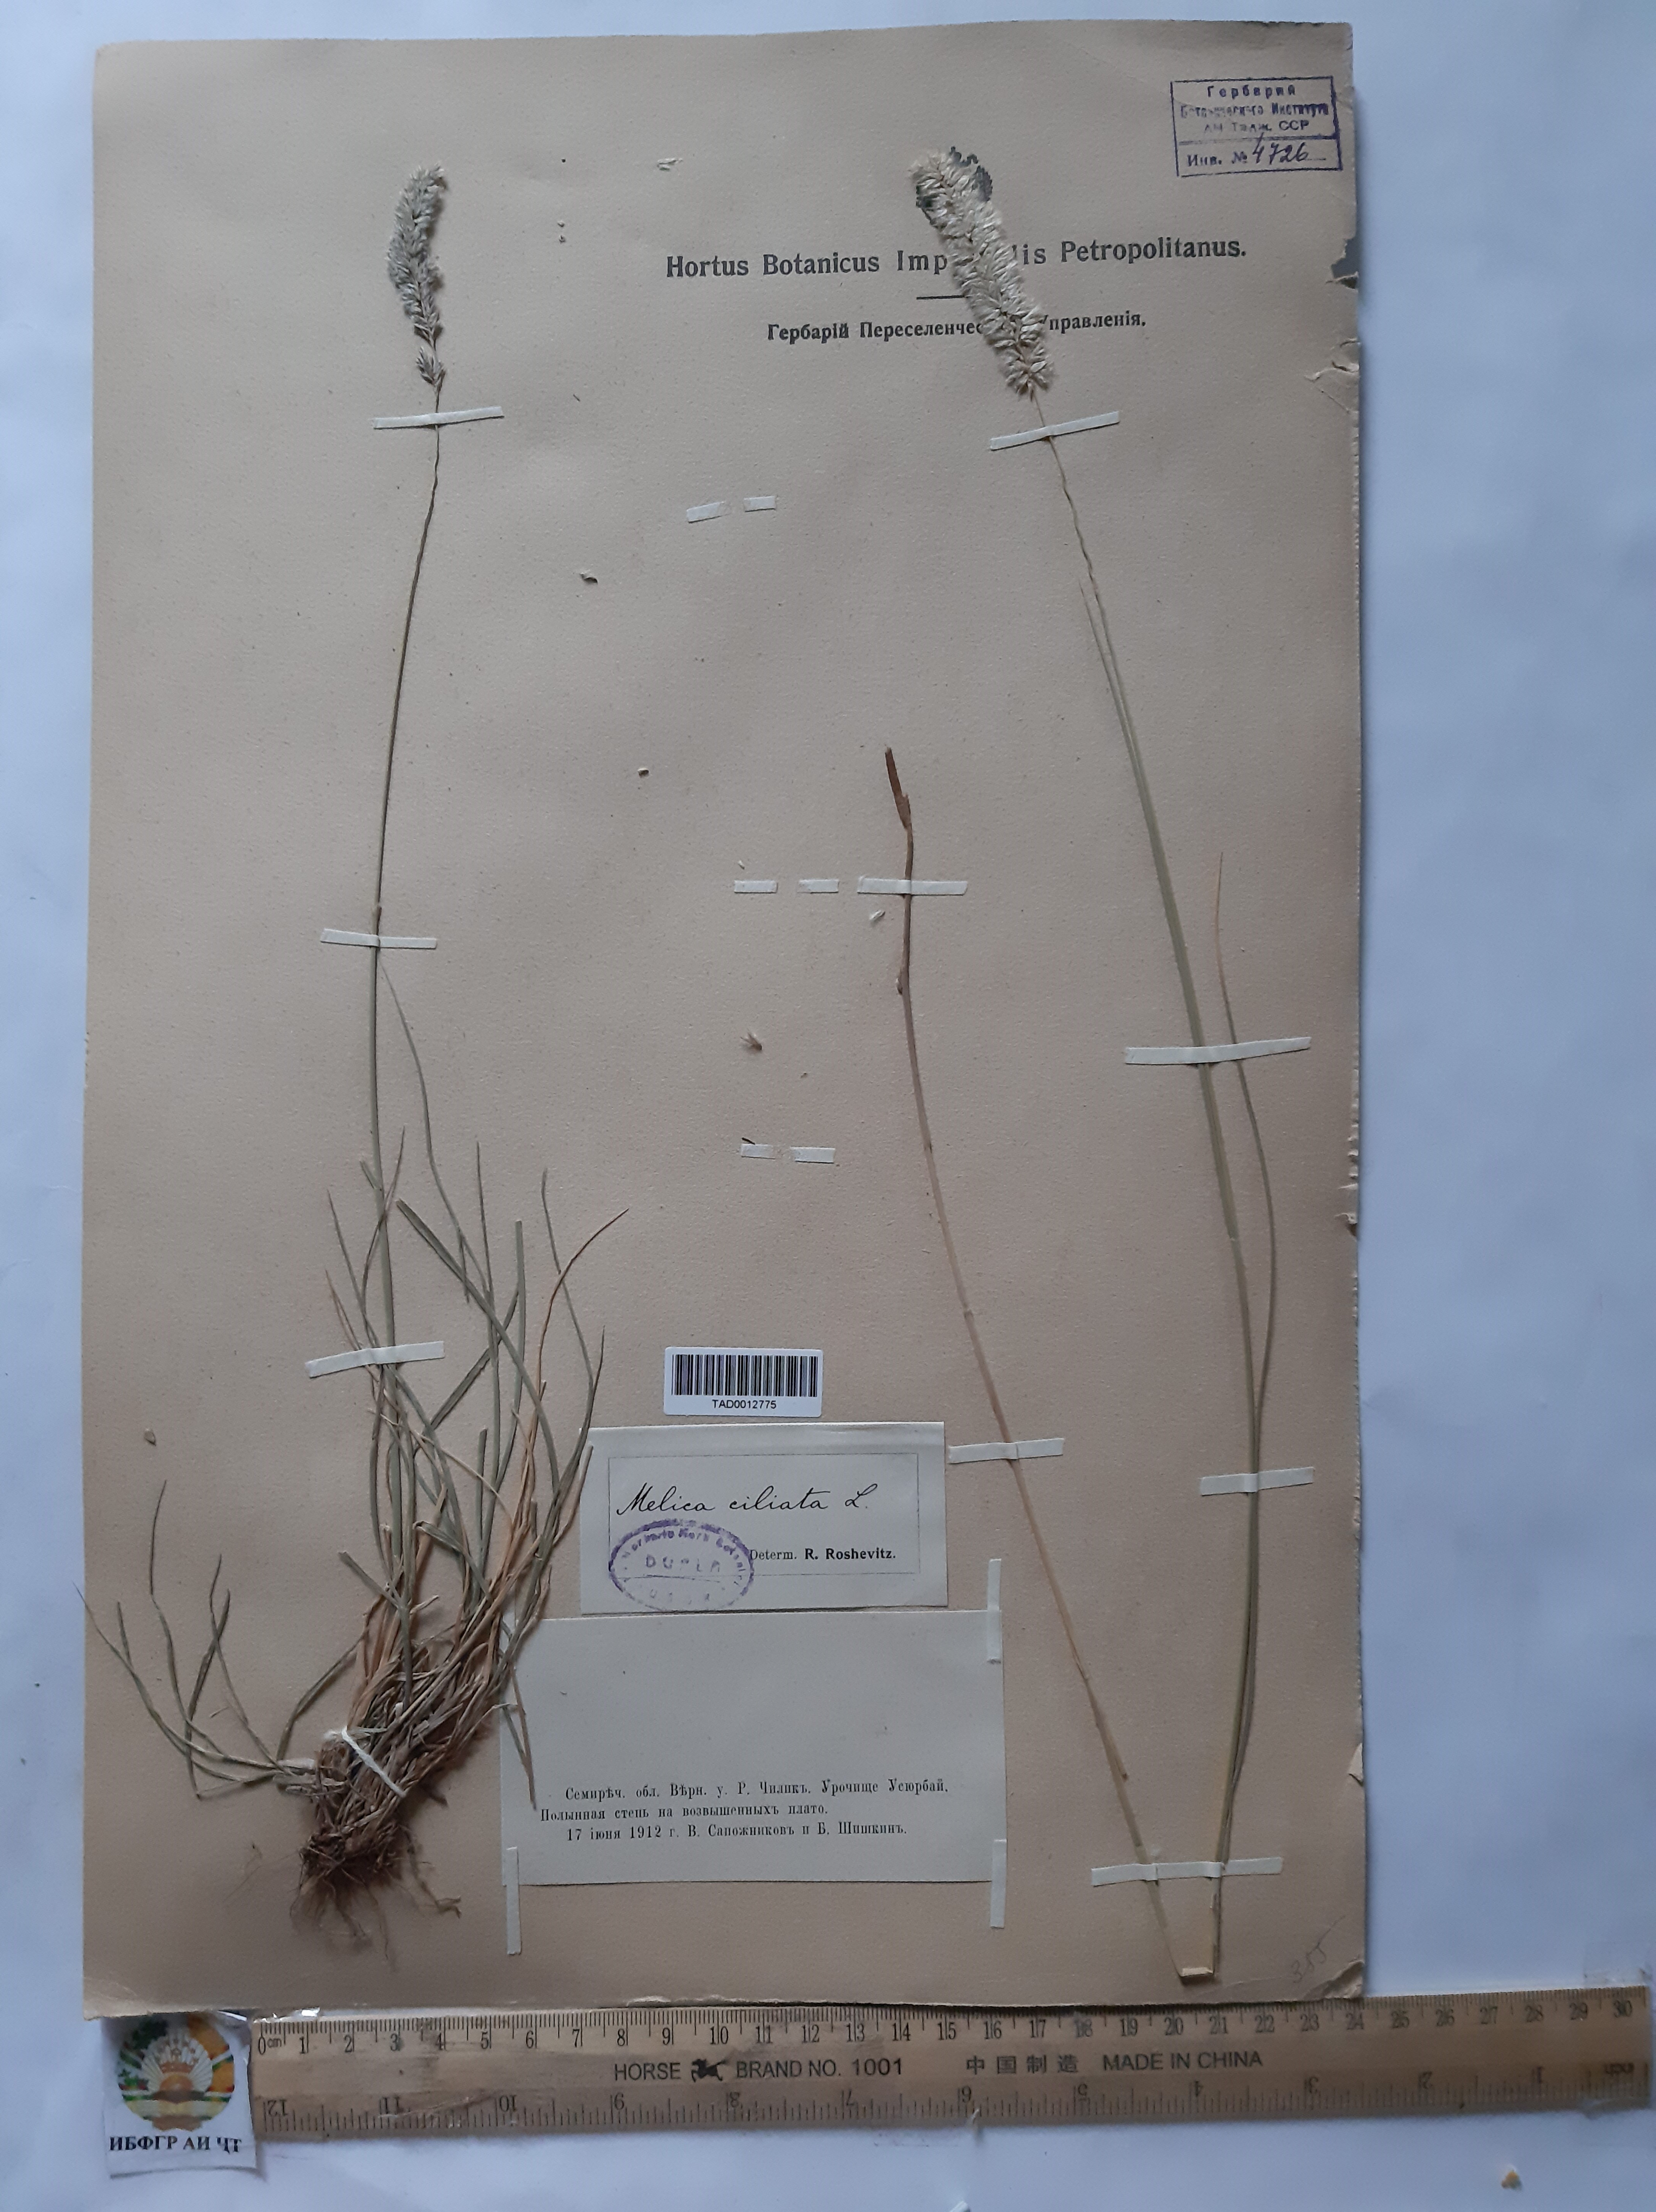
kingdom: Plantae
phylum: Tracheophyta
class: Liliopsida
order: Poales
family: Poaceae
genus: Melica
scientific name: Melica ciliata
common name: Hairy melicgrass
